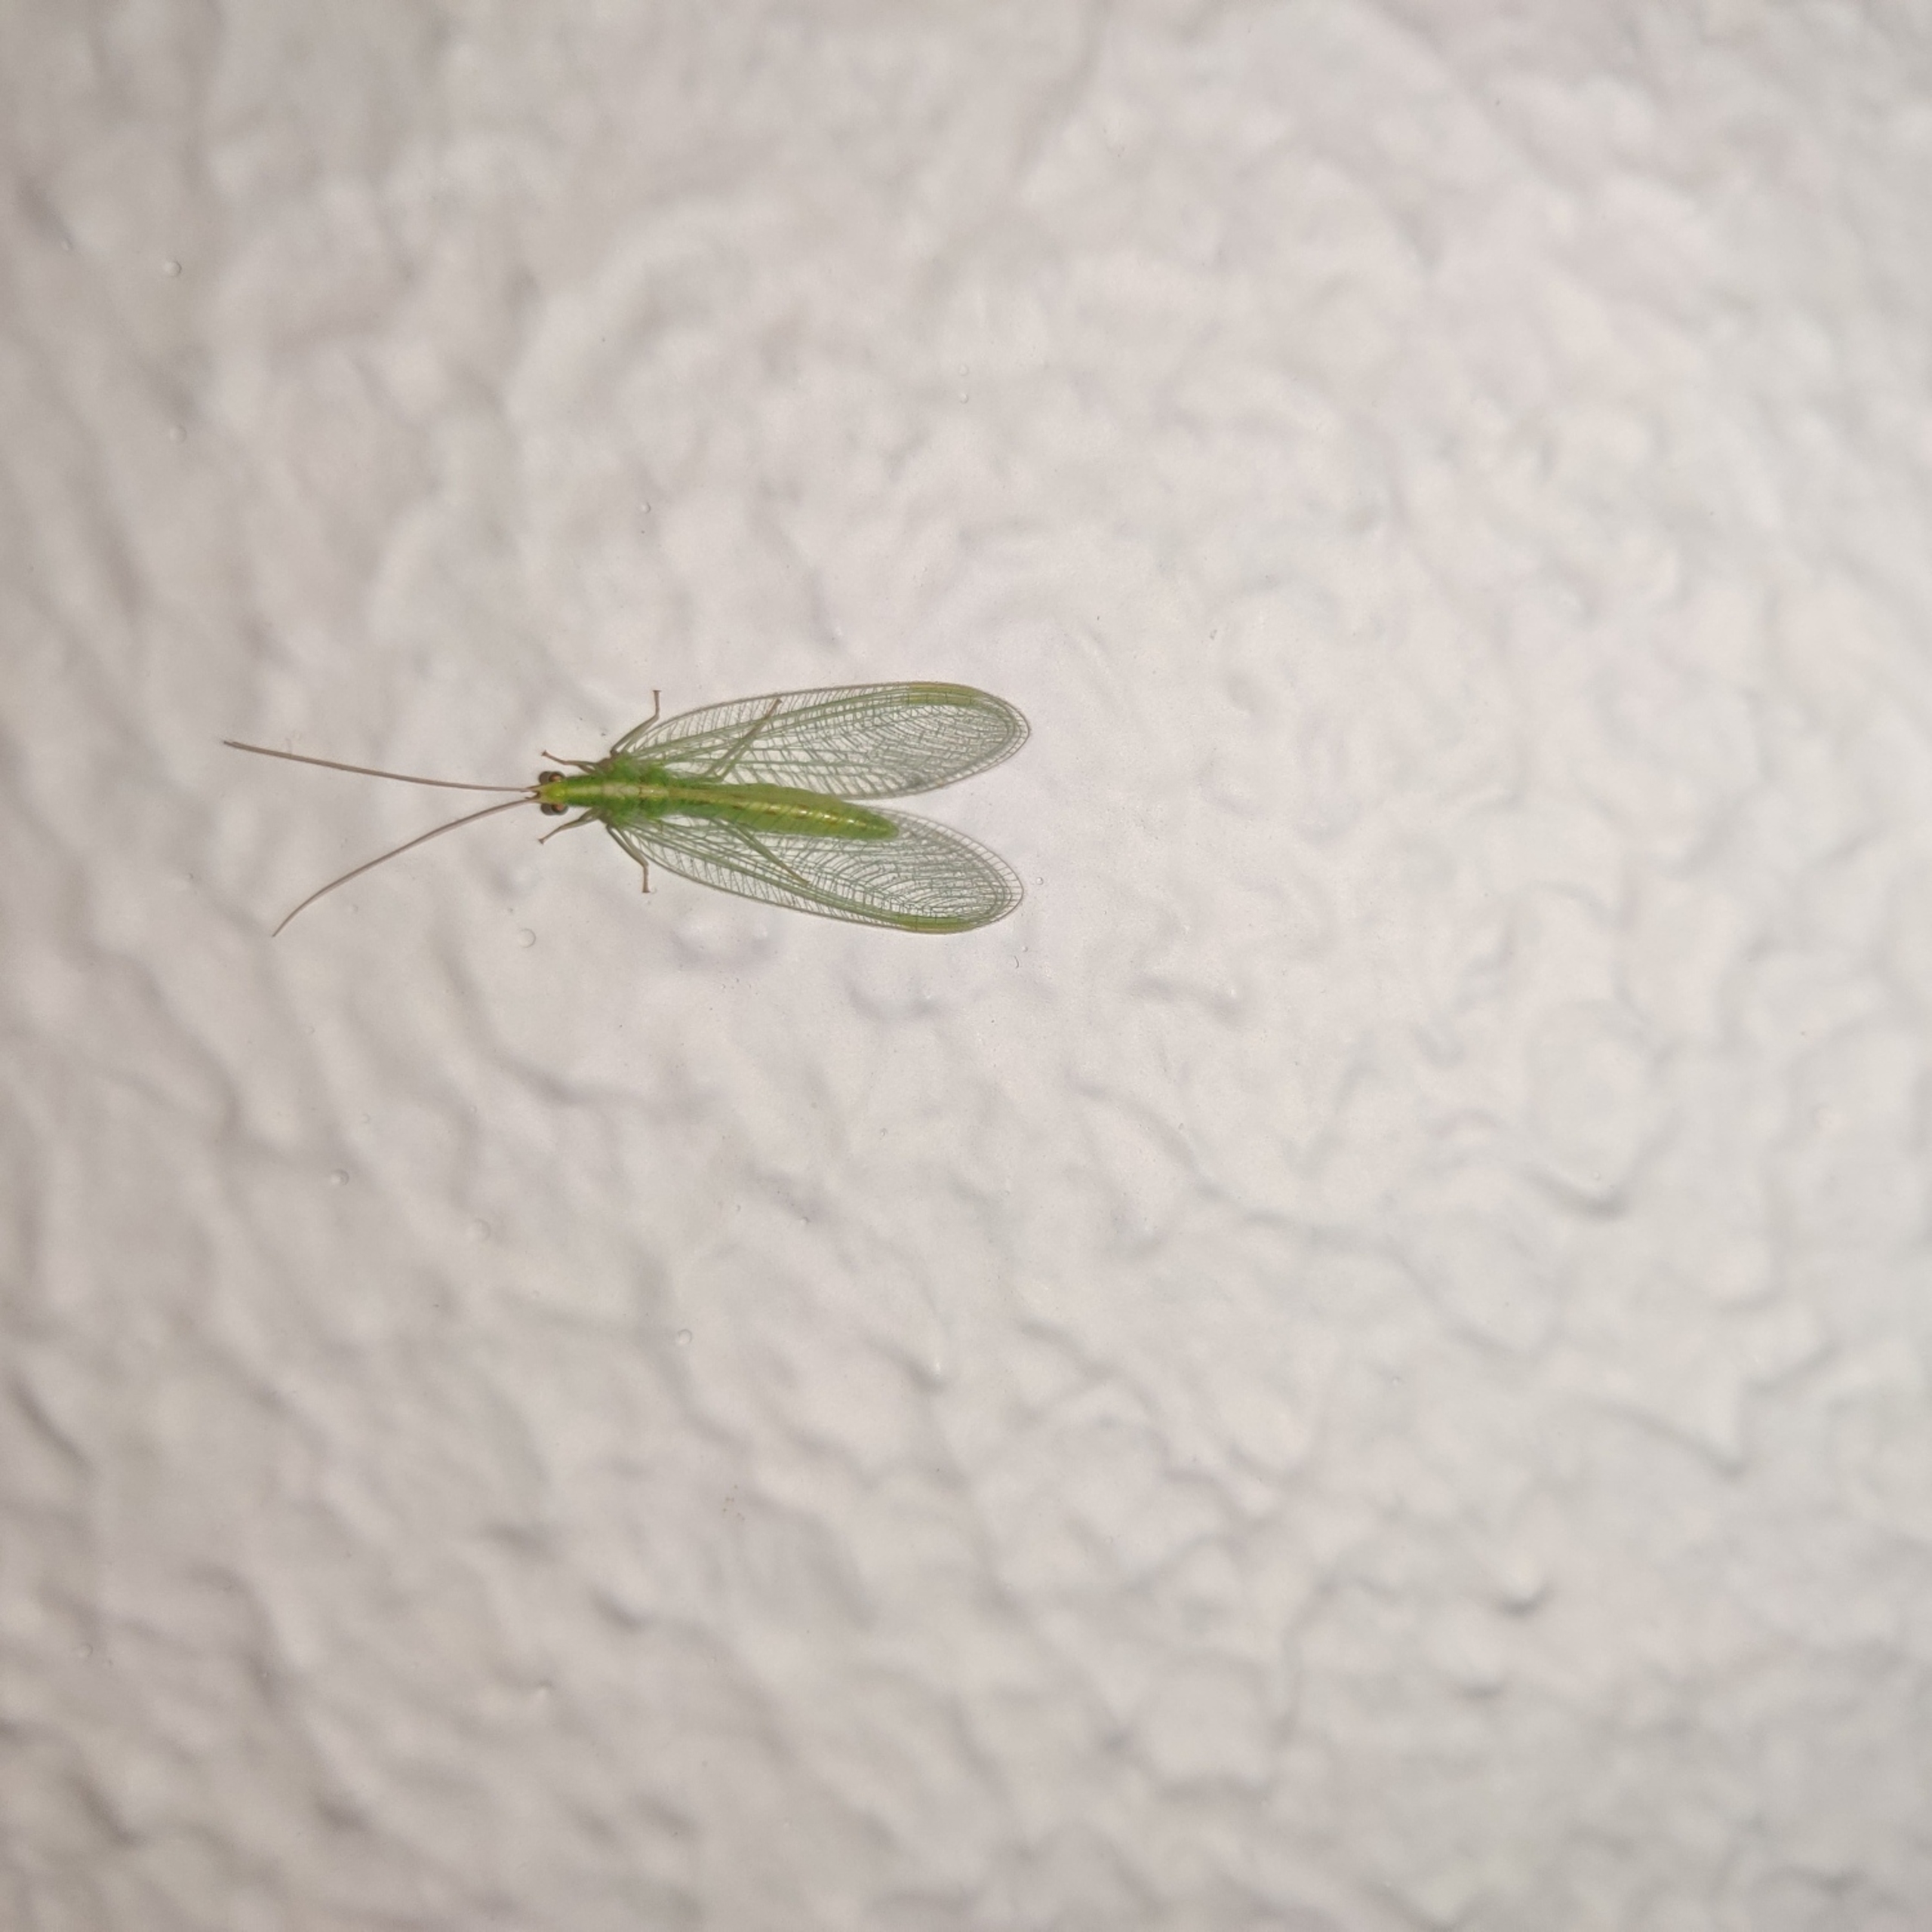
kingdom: Animalia
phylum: Arthropoda
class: Insecta
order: Neuroptera
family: Chrysopidae
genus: Chrysoperla
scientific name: Chrysoperla carnea
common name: Almindelig guldøje
